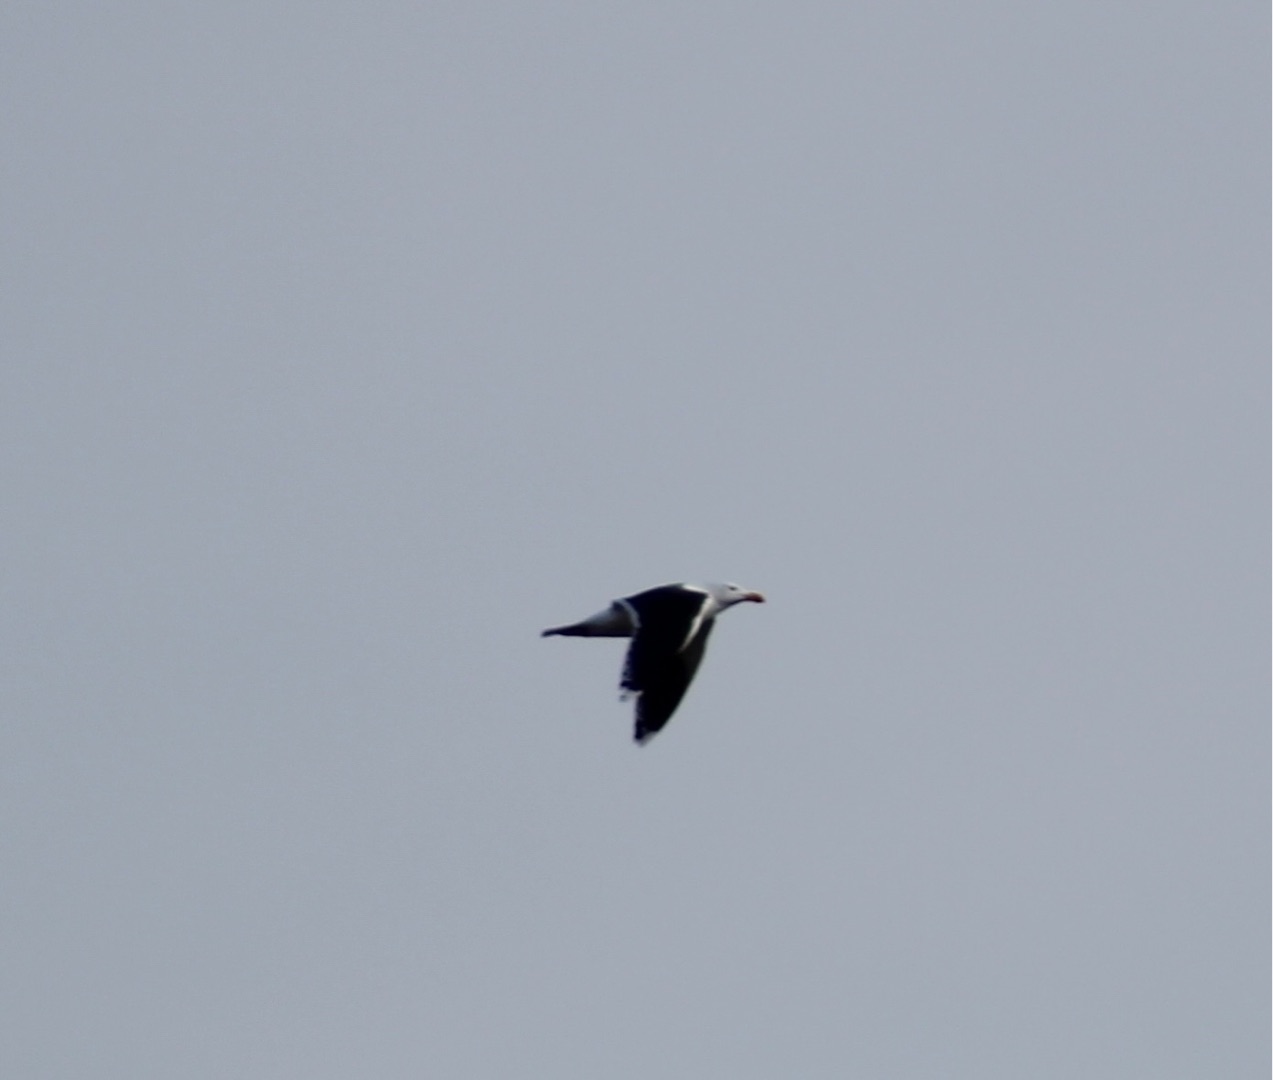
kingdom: Animalia
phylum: Chordata
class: Aves
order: Charadriiformes
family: Laridae
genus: Larus
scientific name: Larus marinus
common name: Svartbag
